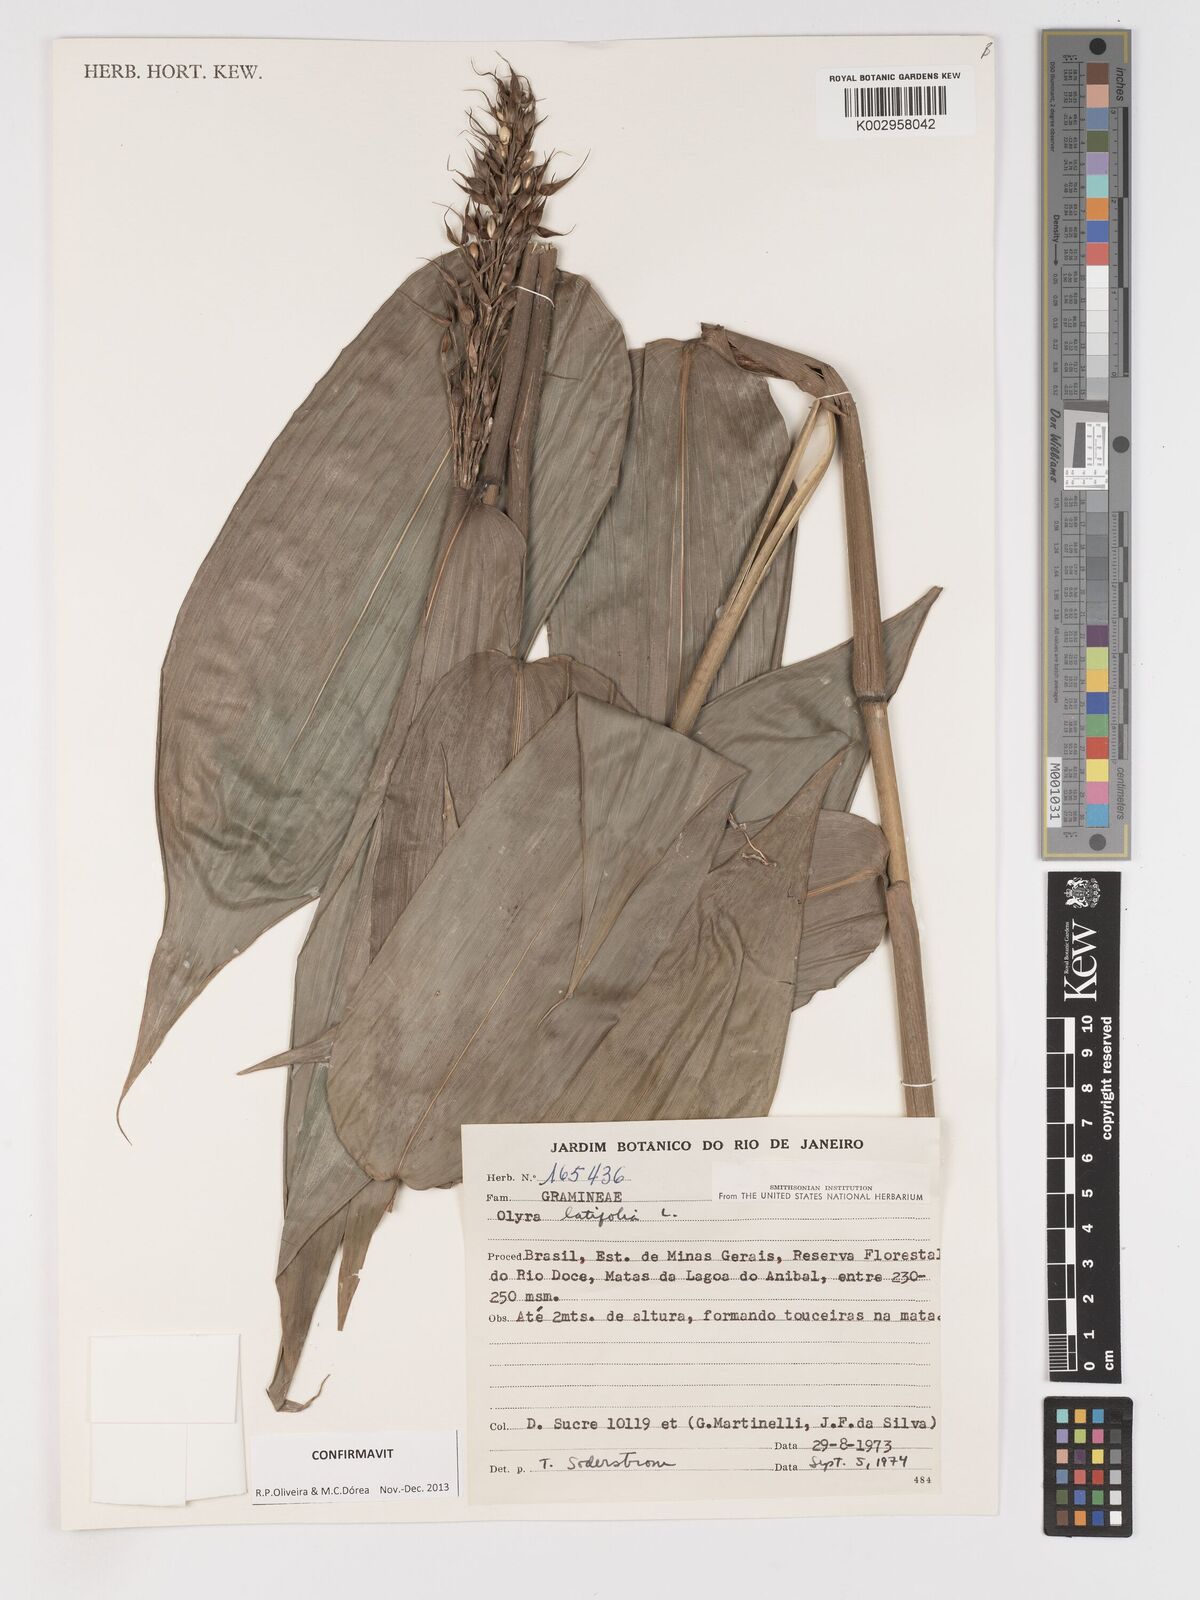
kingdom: Plantae
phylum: Tracheophyta
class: Liliopsida
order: Poales
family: Poaceae
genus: Olyra
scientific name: Olyra latifolia
